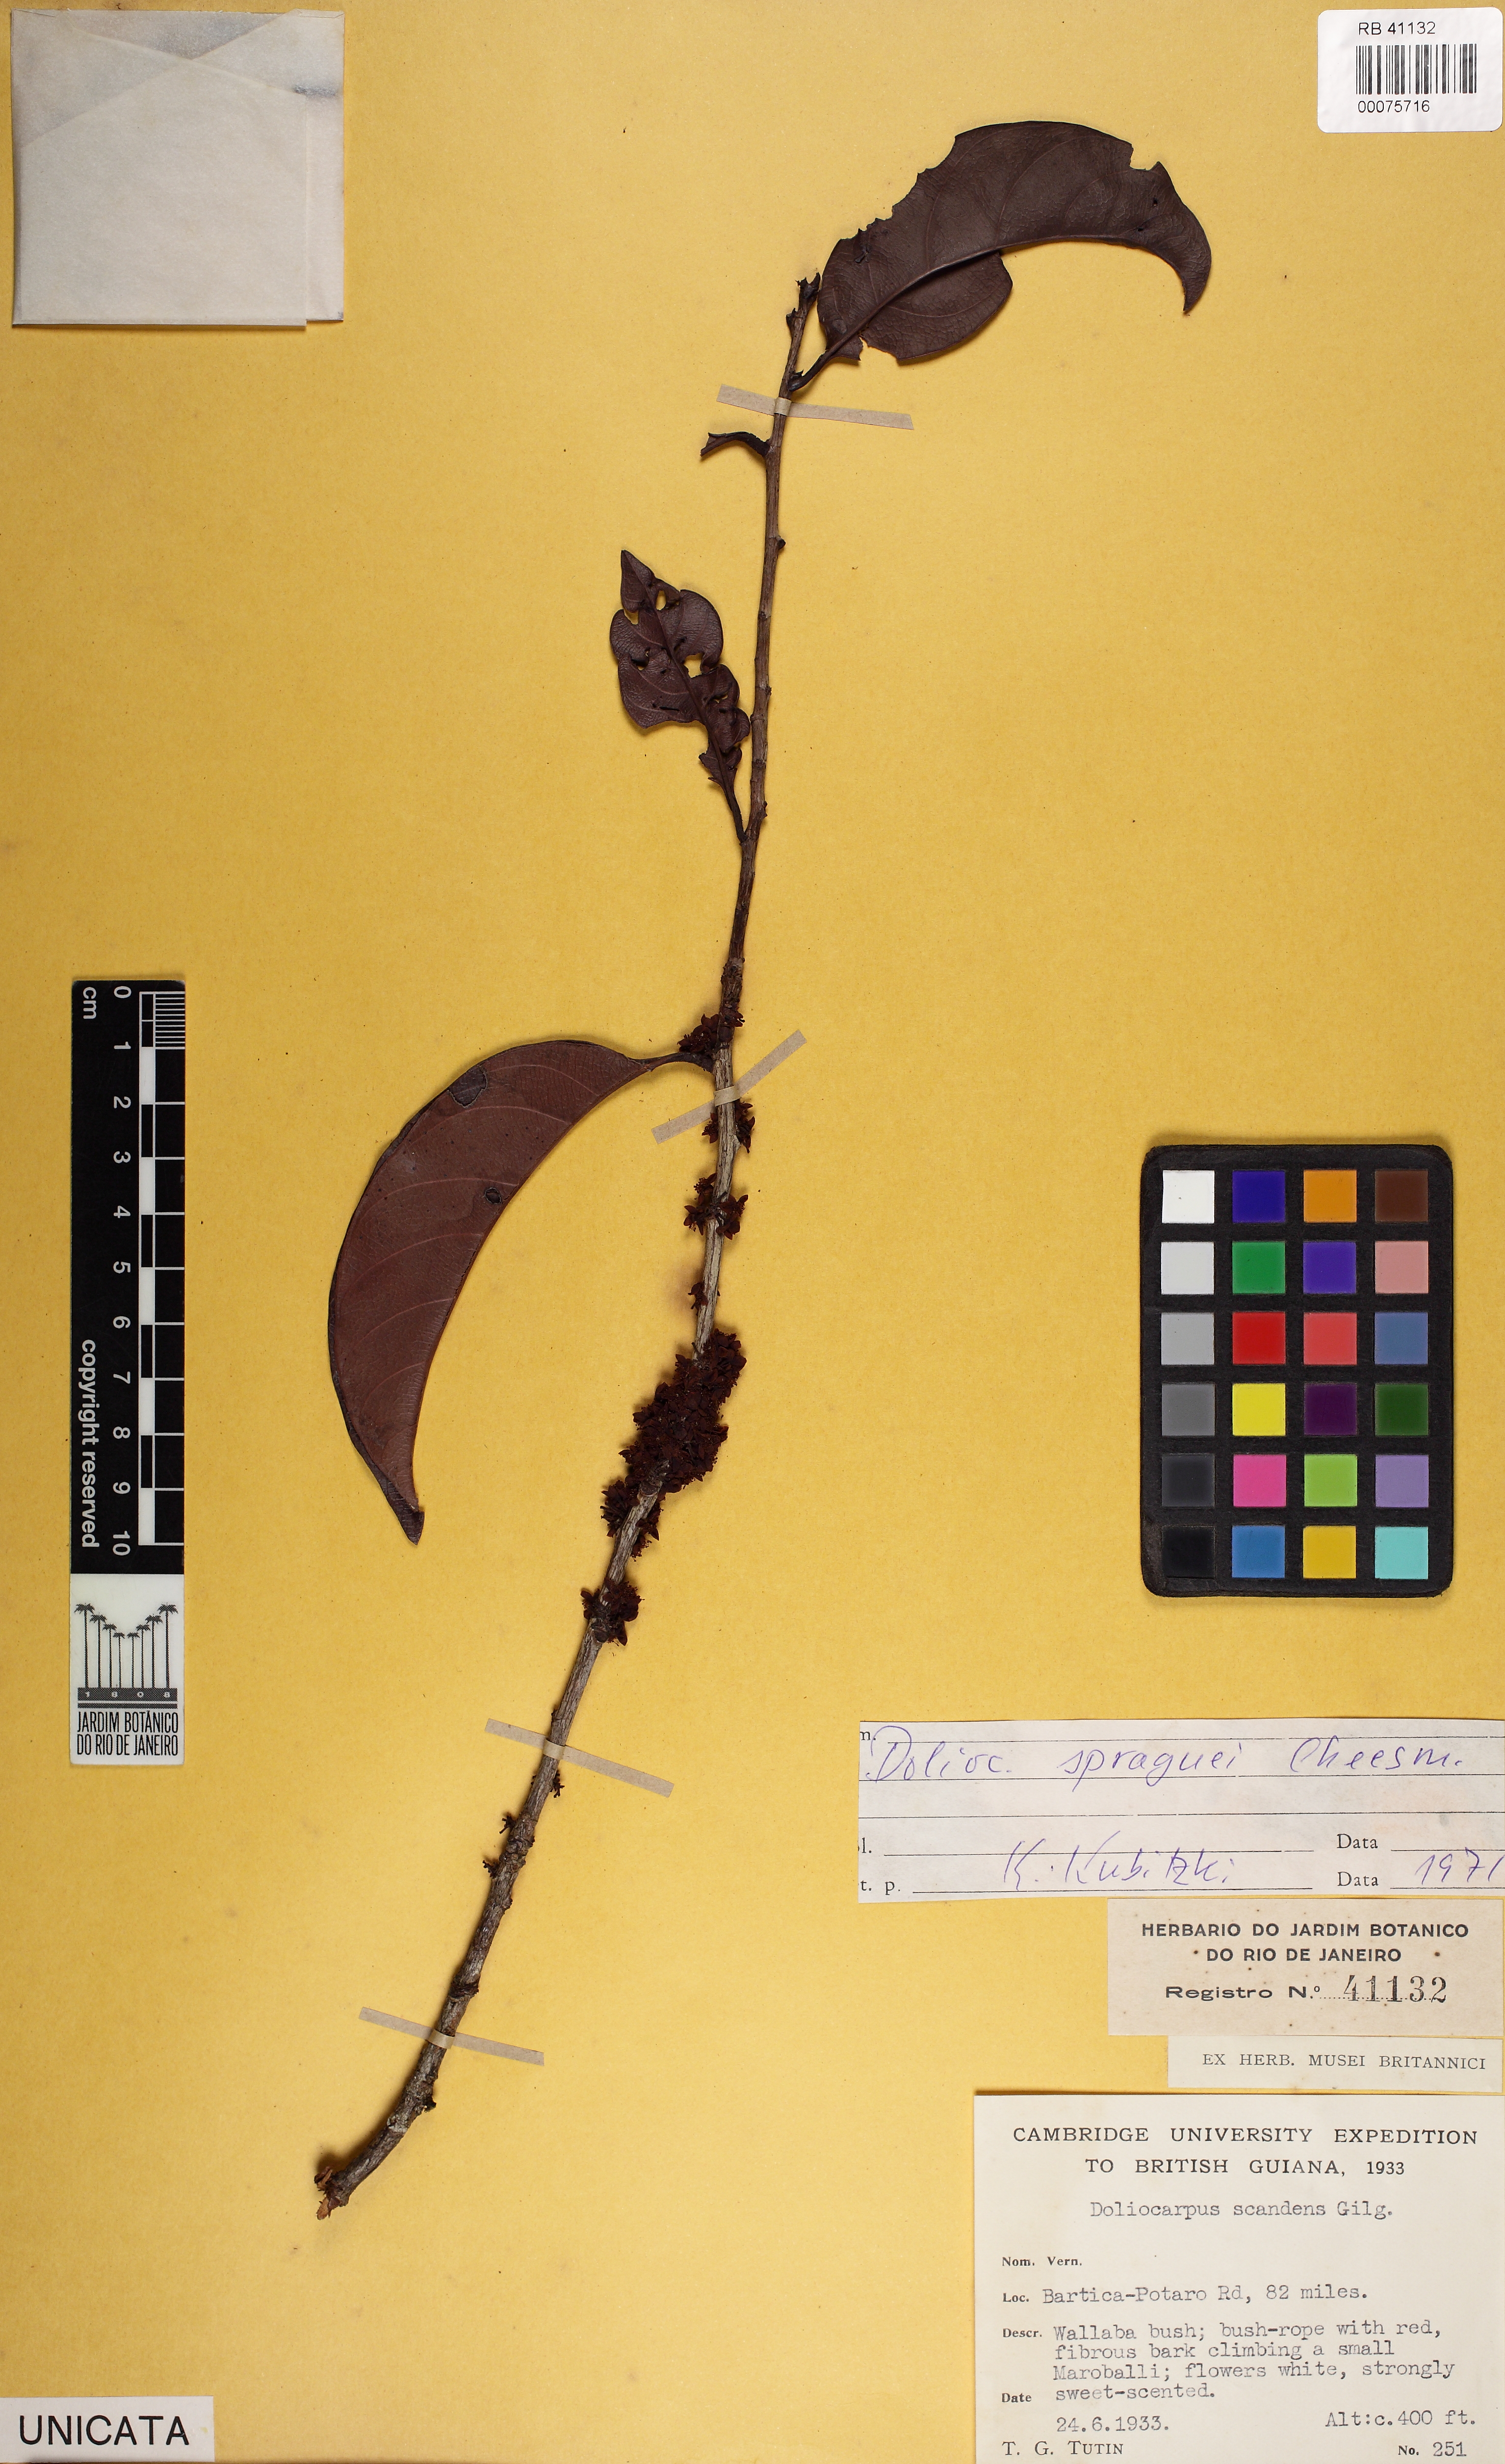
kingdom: Plantae
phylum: Tracheophyta
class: Magnoliopsida
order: Dilleniales
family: Dilleniaceae
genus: Doliocarpus
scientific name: Doliocarpus spraguei
